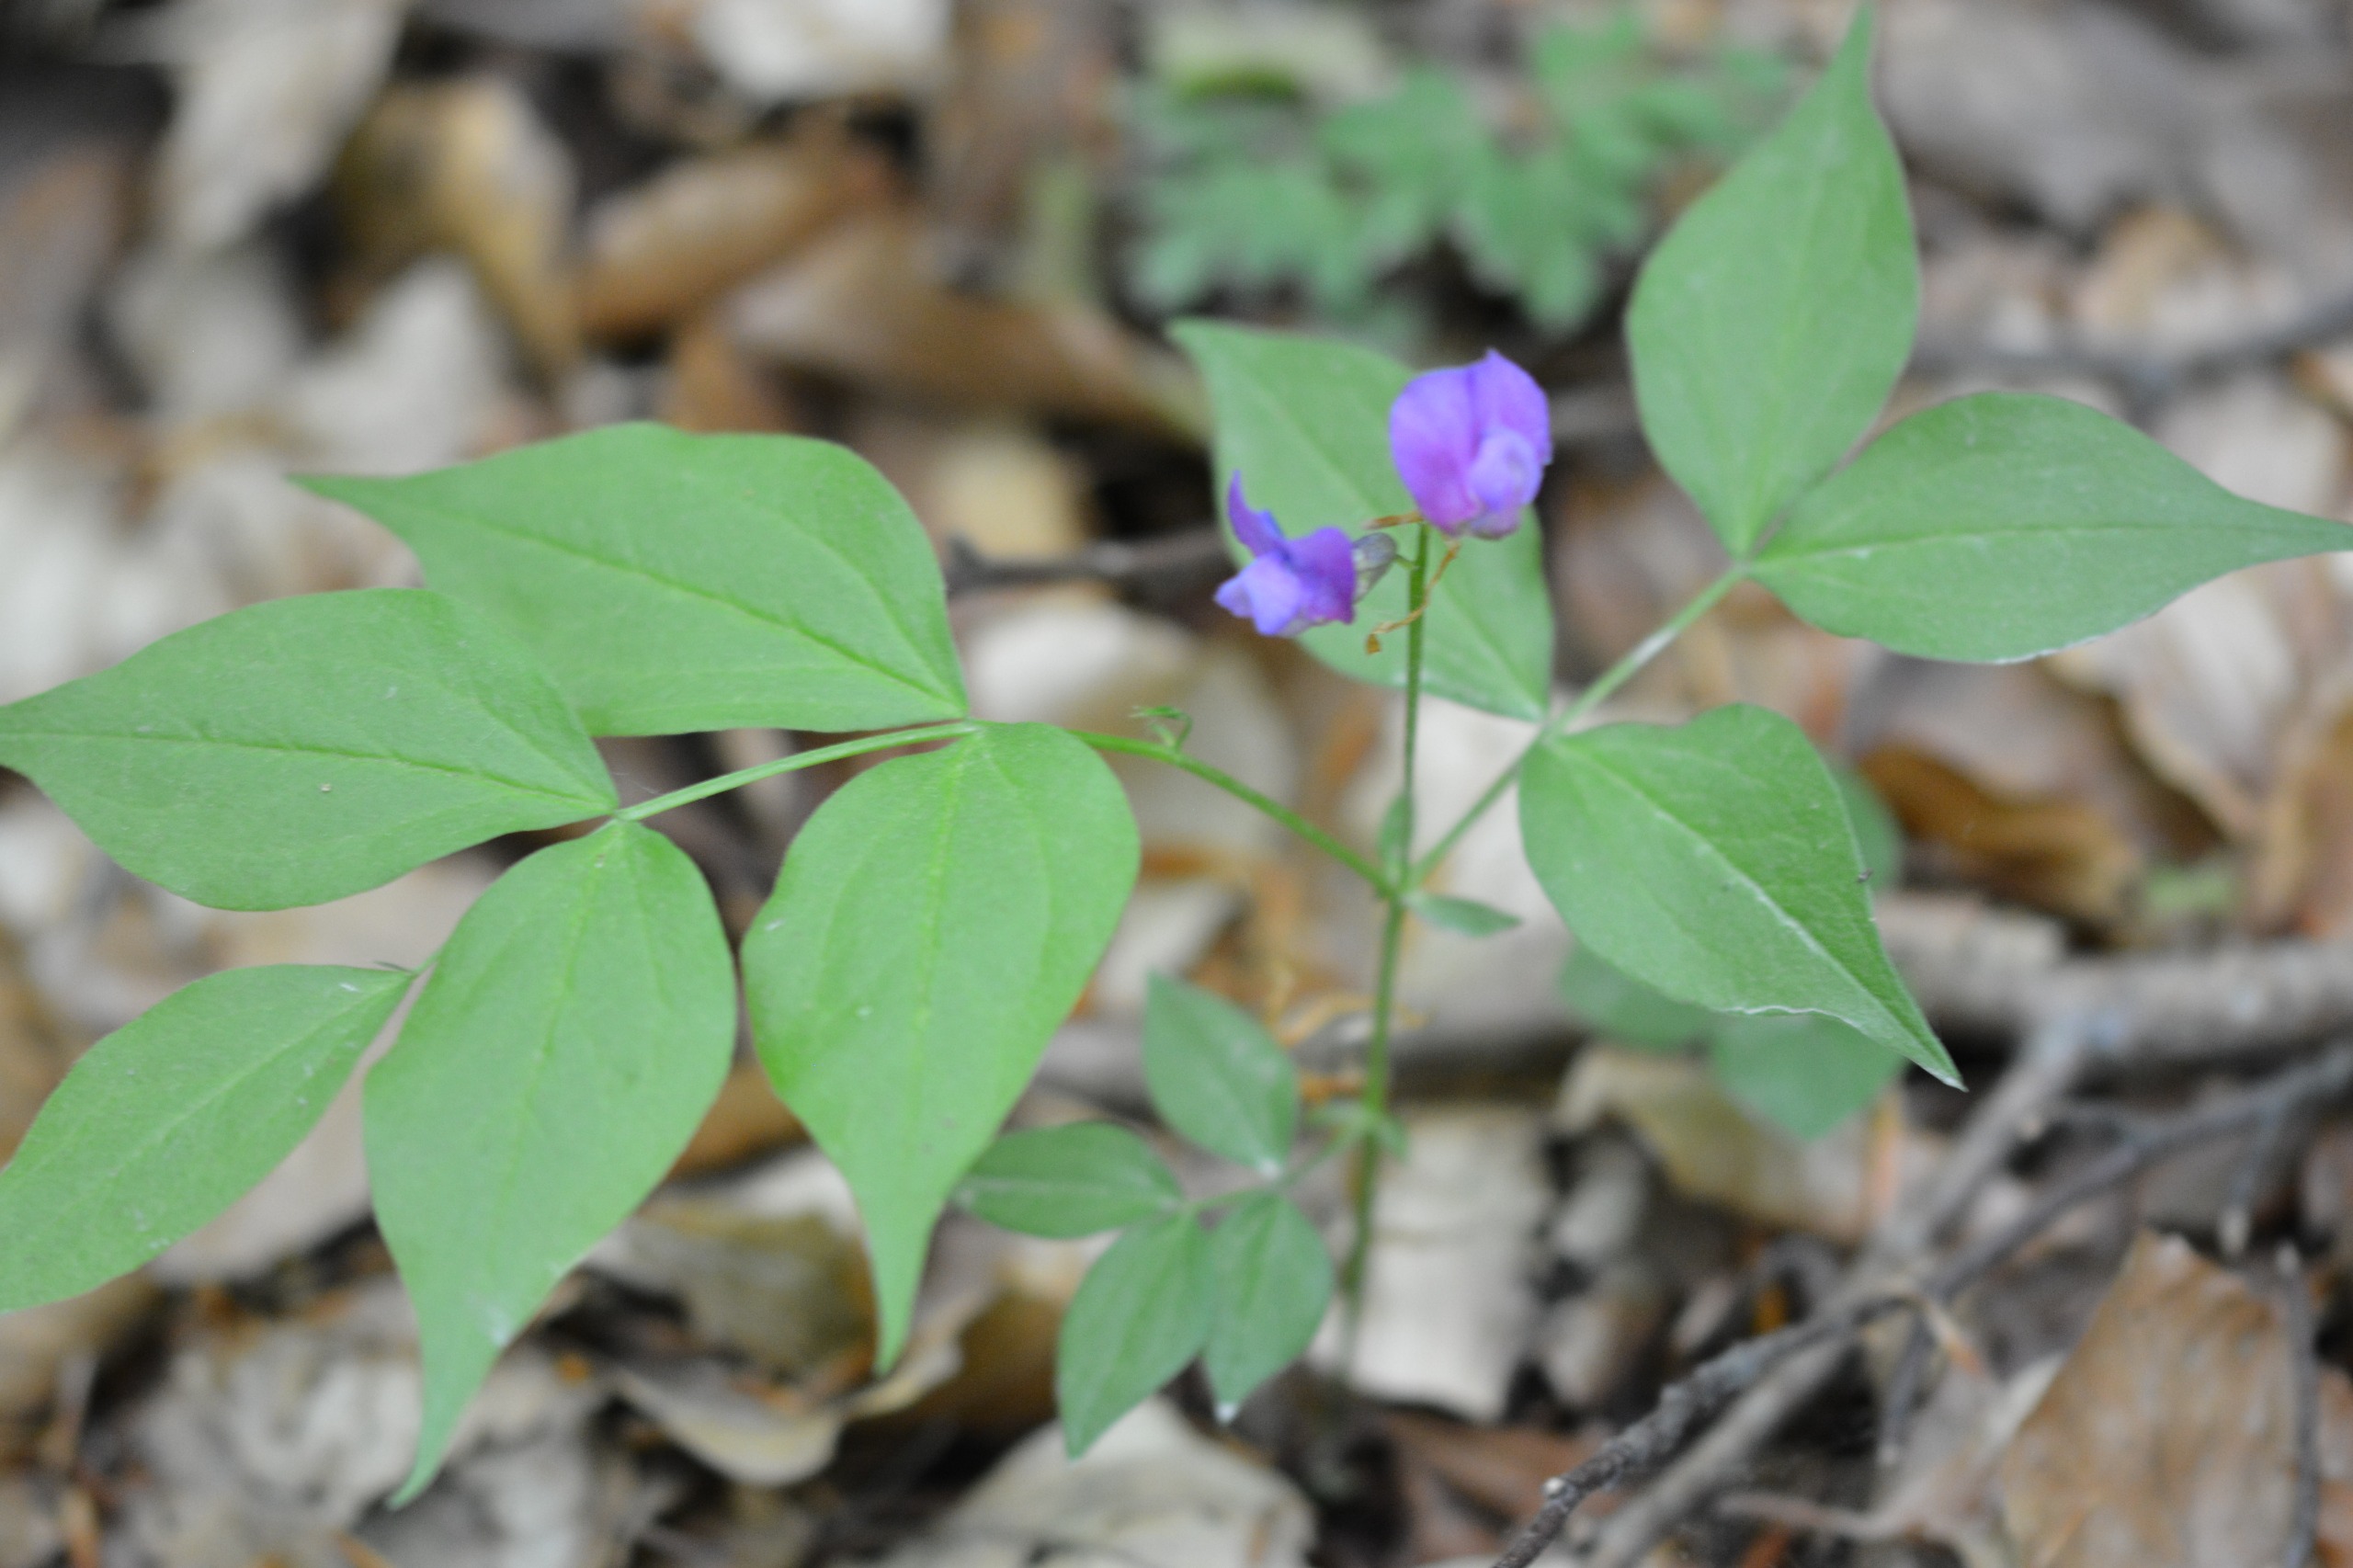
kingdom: Plantae
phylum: Tracheophyta
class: Magnoliopsida
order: Fabales
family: Fabaceae
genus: Lathyrus
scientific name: Lathyrus vernus
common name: Vår-fladbælg
